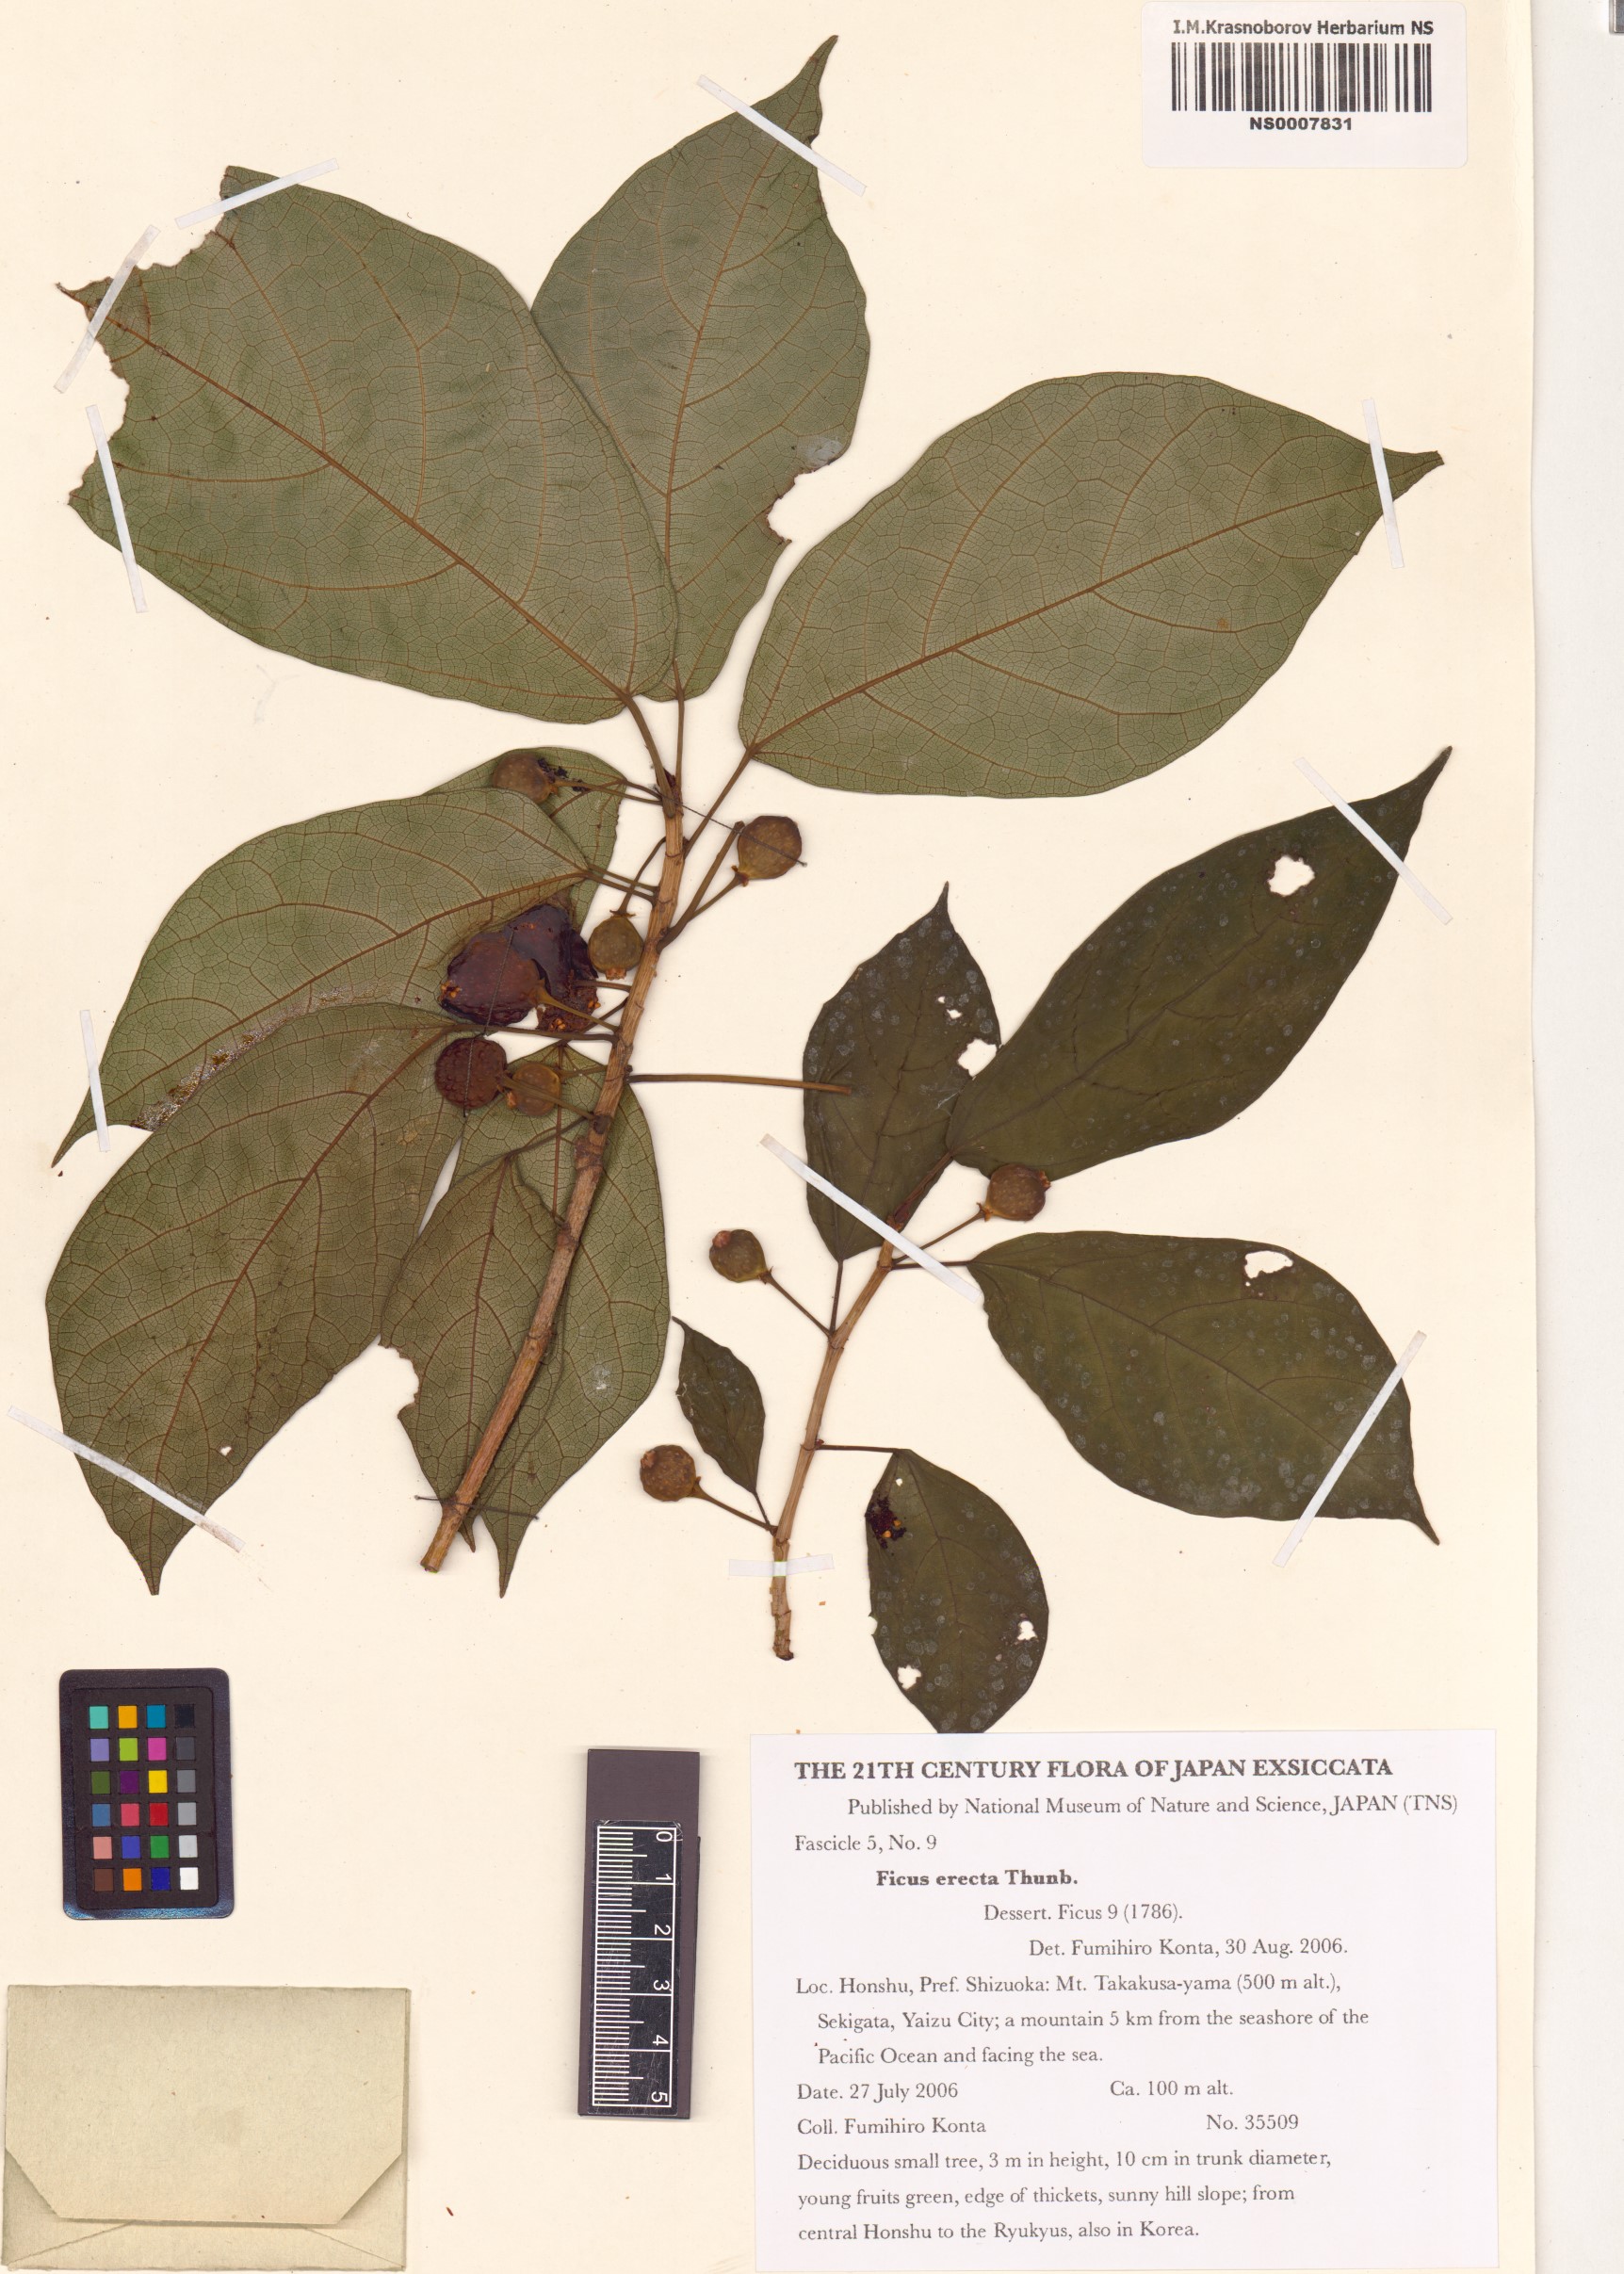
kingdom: Plantae
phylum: Tracheophyta
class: Magnoliopsida
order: Rosales
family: Moraceae
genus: Ficus
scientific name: Ficus erecta
